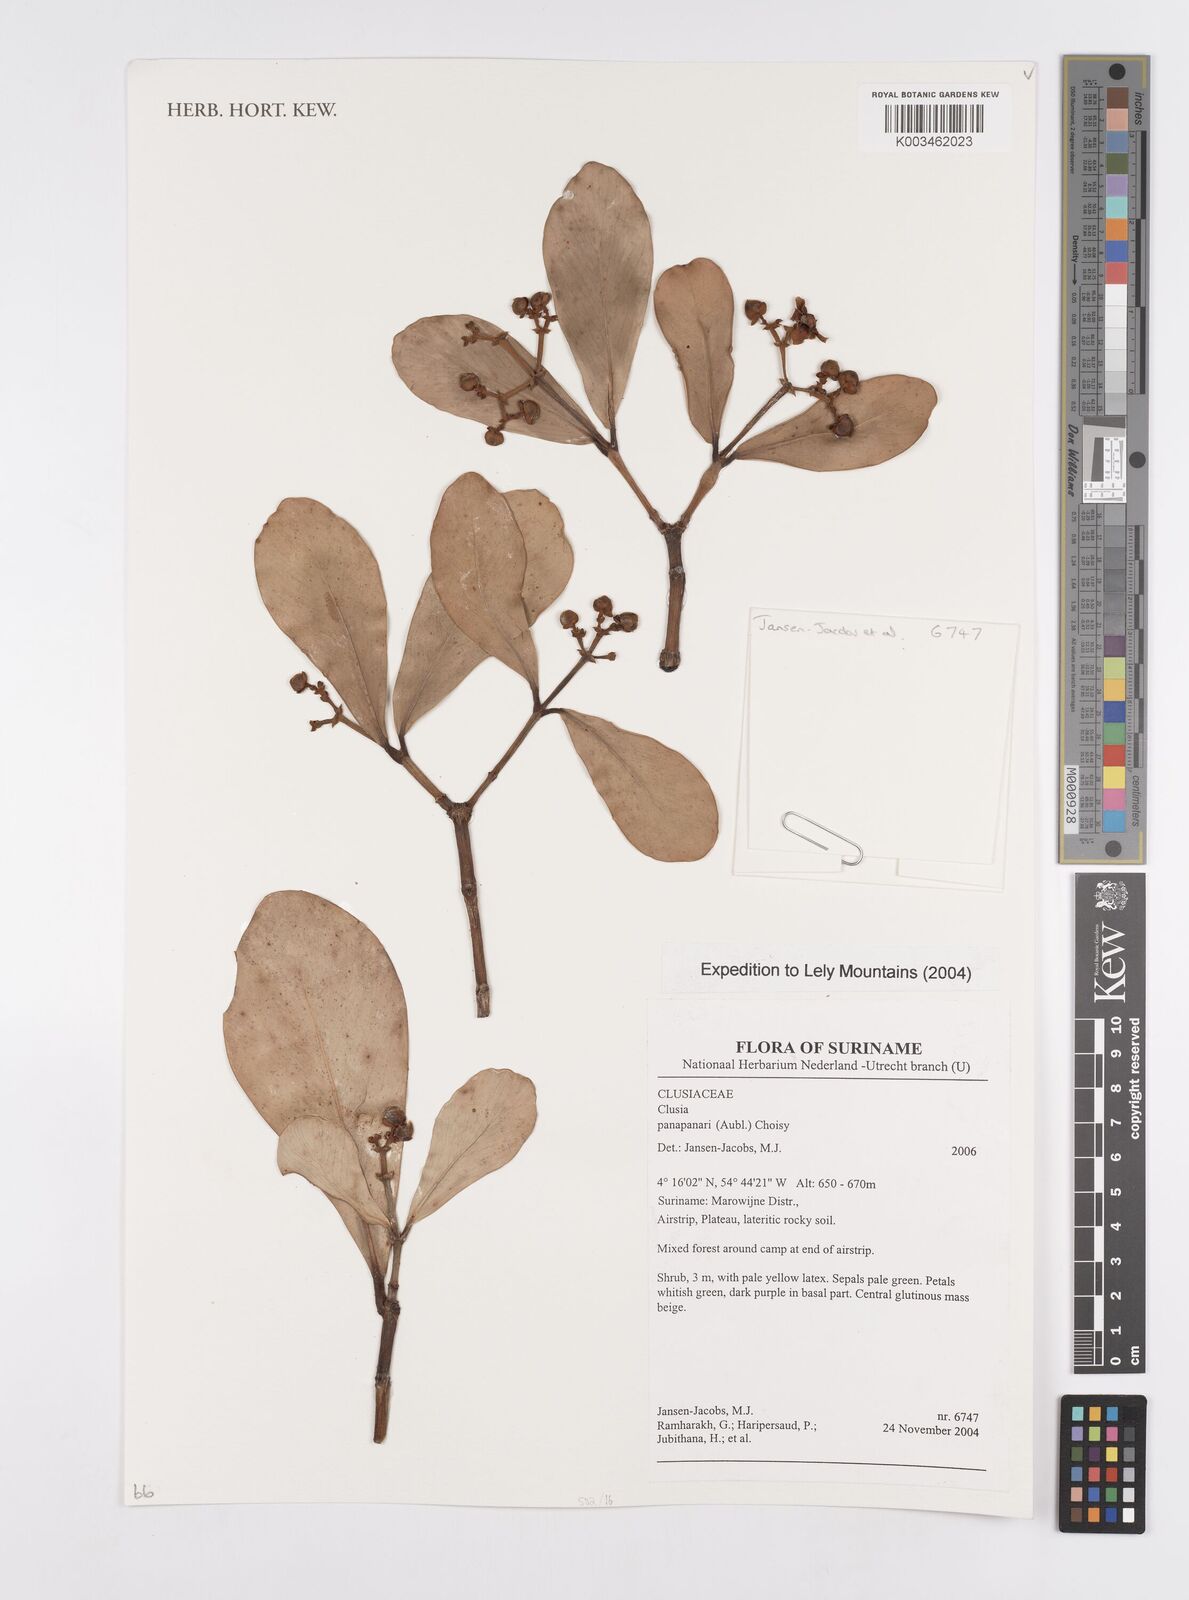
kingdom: Plantae
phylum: Tracheophyta
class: Magnoliopsida
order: Malpighiales
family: Clusiaceae
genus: Clusia
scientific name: Clusia panapanari
